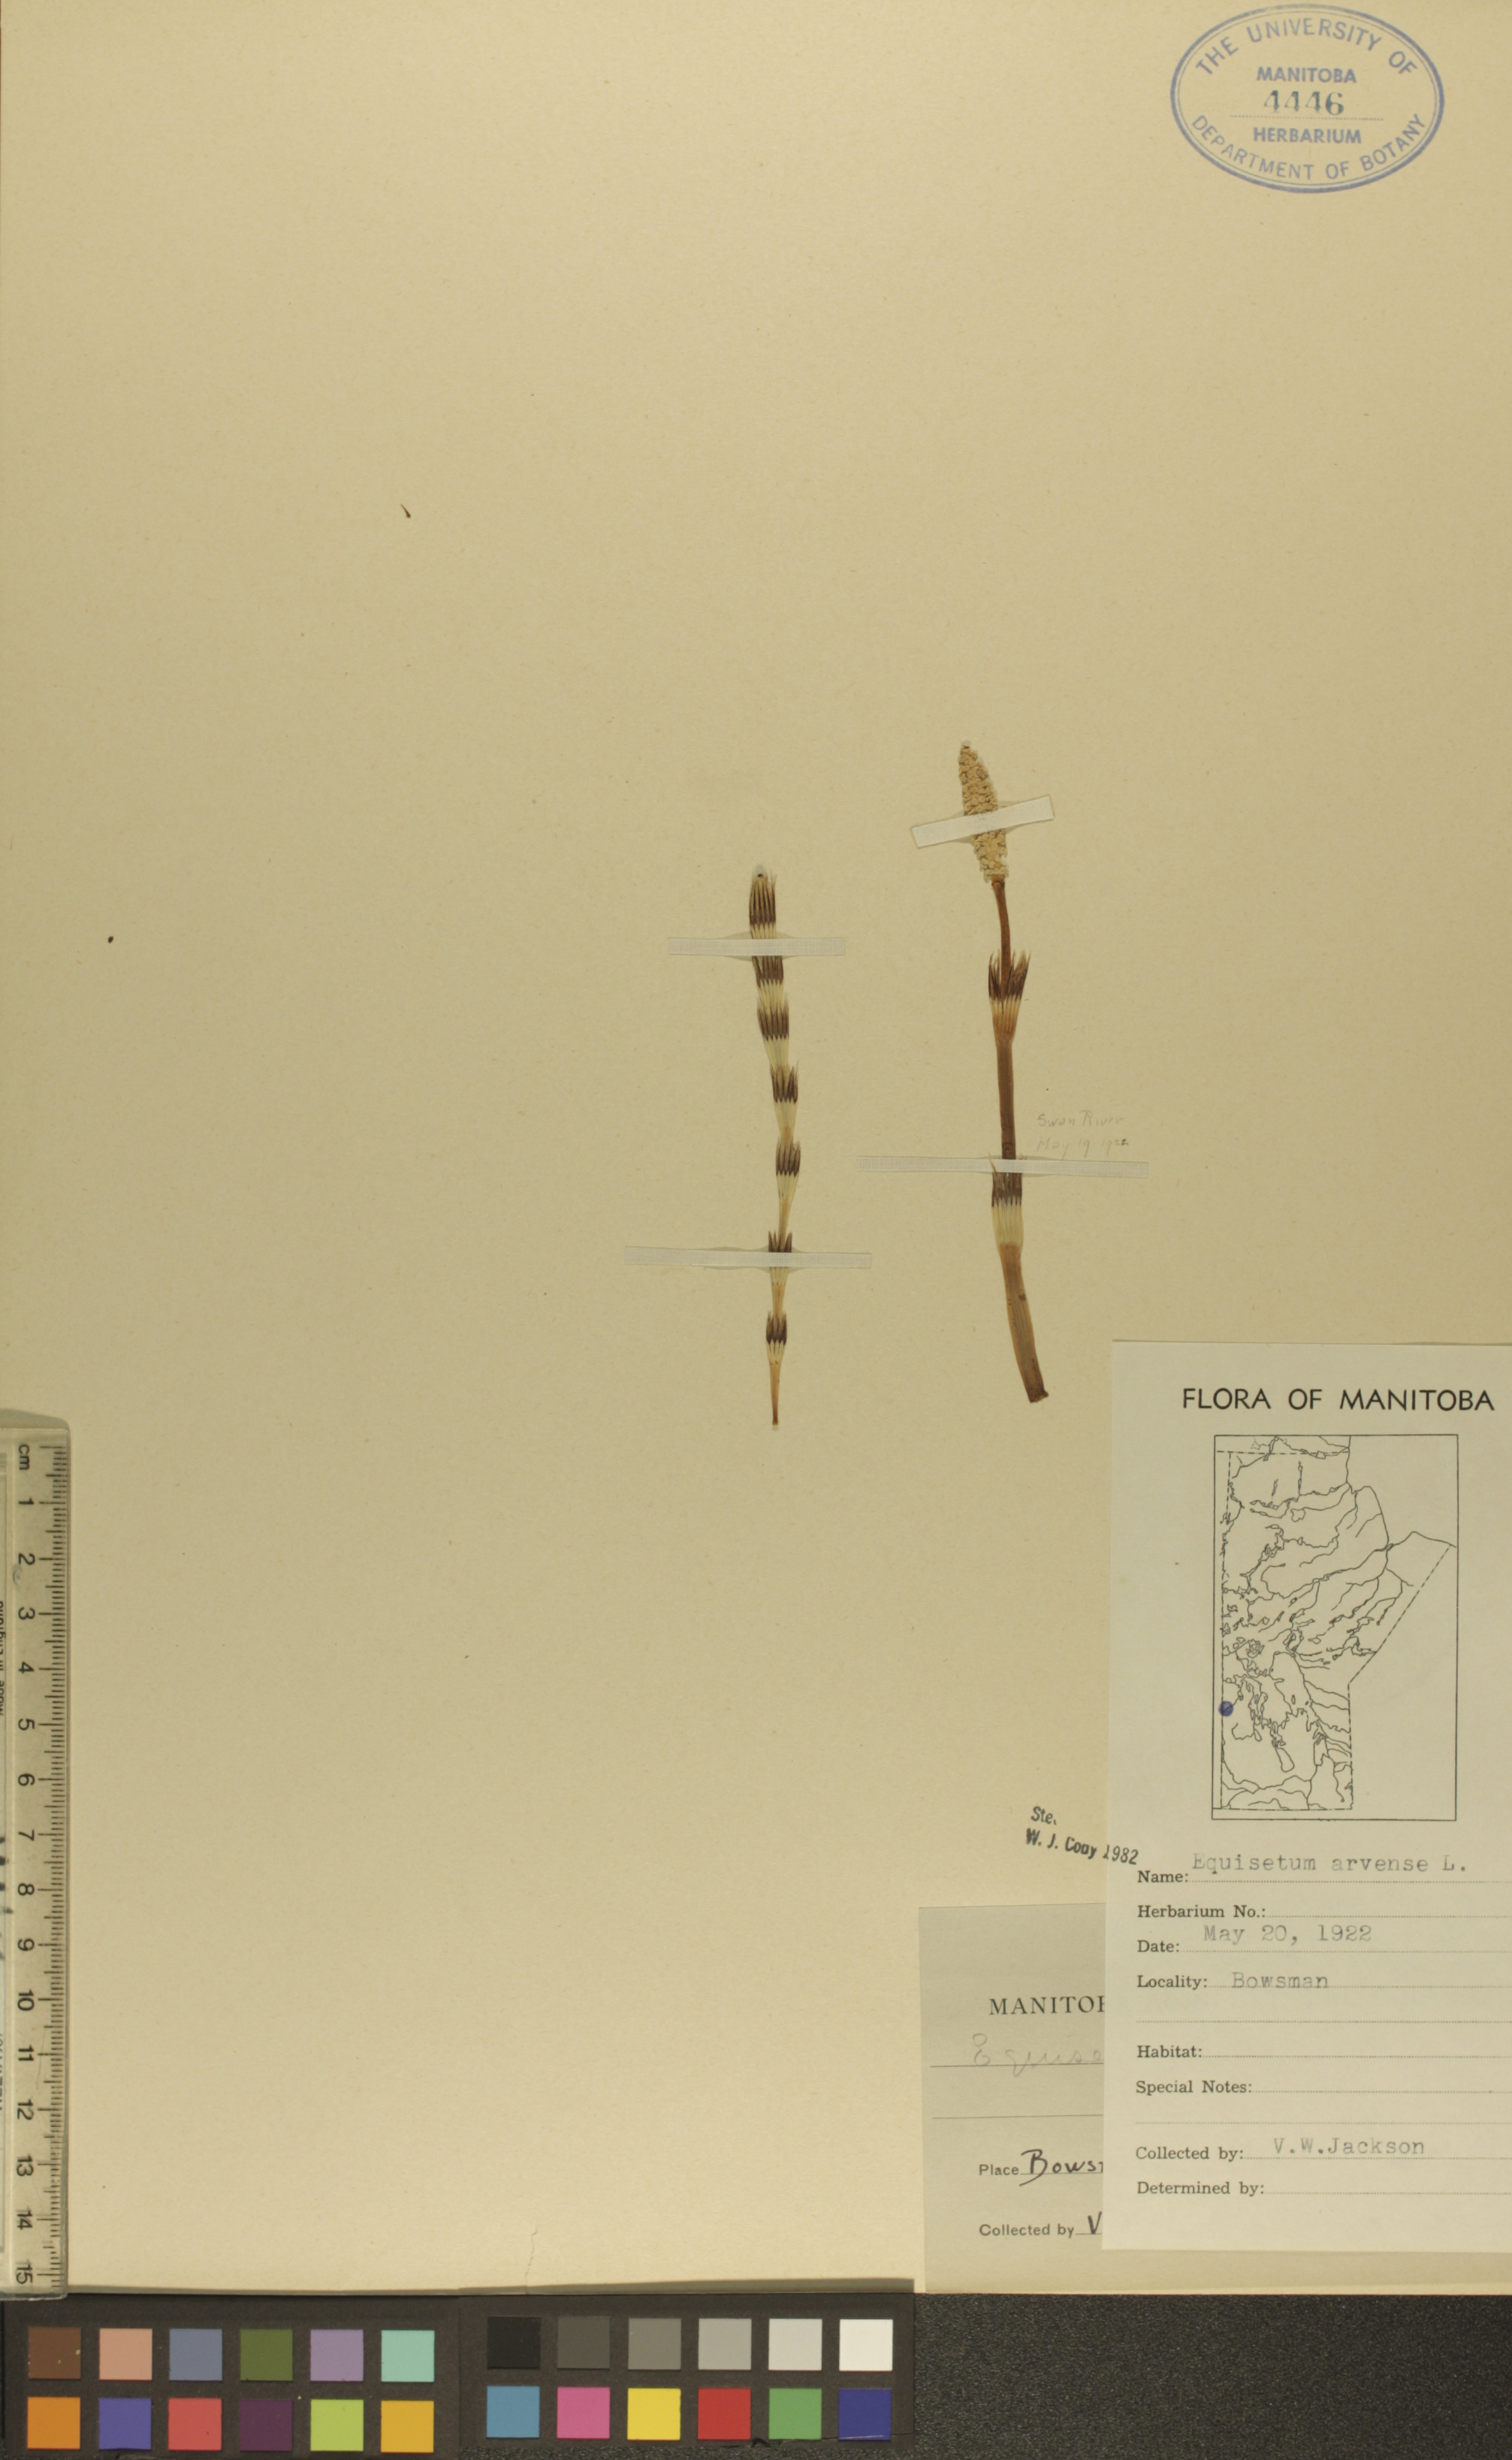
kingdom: Plantae
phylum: Tracheophyta
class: Polypodiopsida
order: Equisetales
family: Equisetaceae
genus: Equisetum
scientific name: Equisetum arvense
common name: Field horsetail
